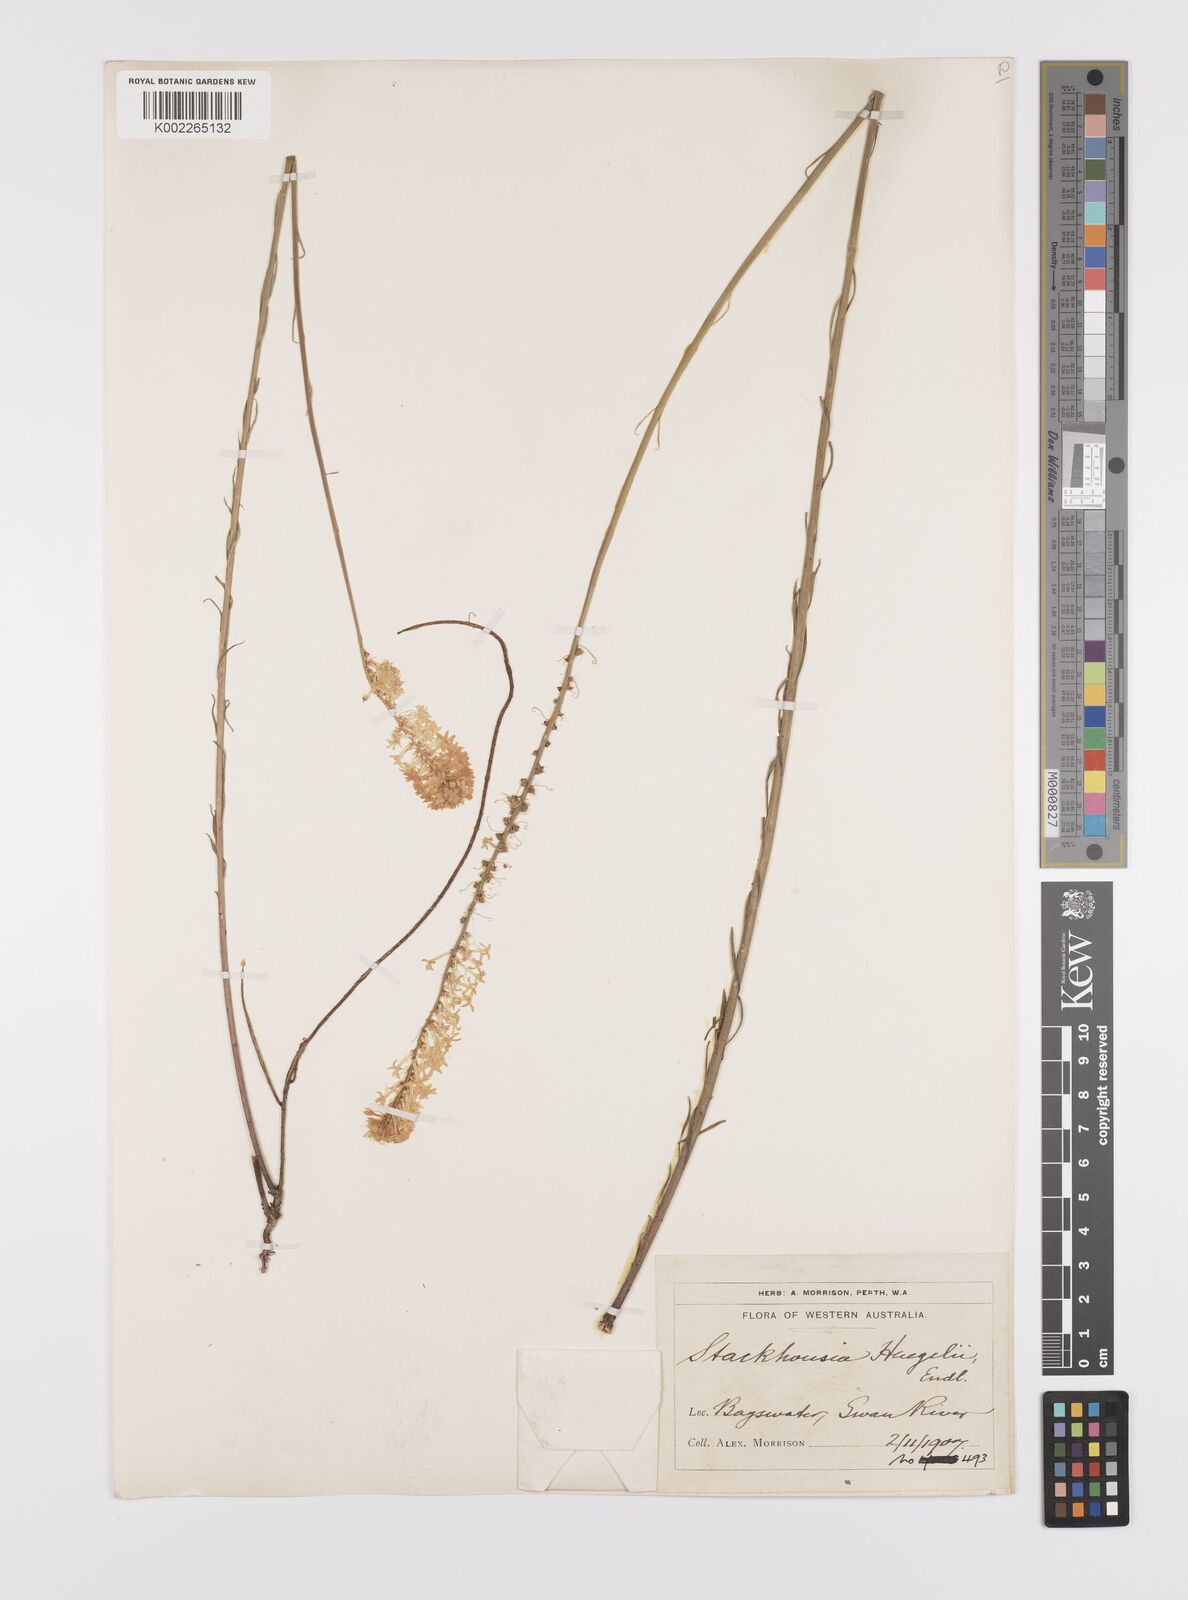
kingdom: Plantae
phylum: Tracheophyta
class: Magnoliopsida
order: Celastrales
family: Celastraceae
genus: Stackhousia
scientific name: Stackhousia monogyna
